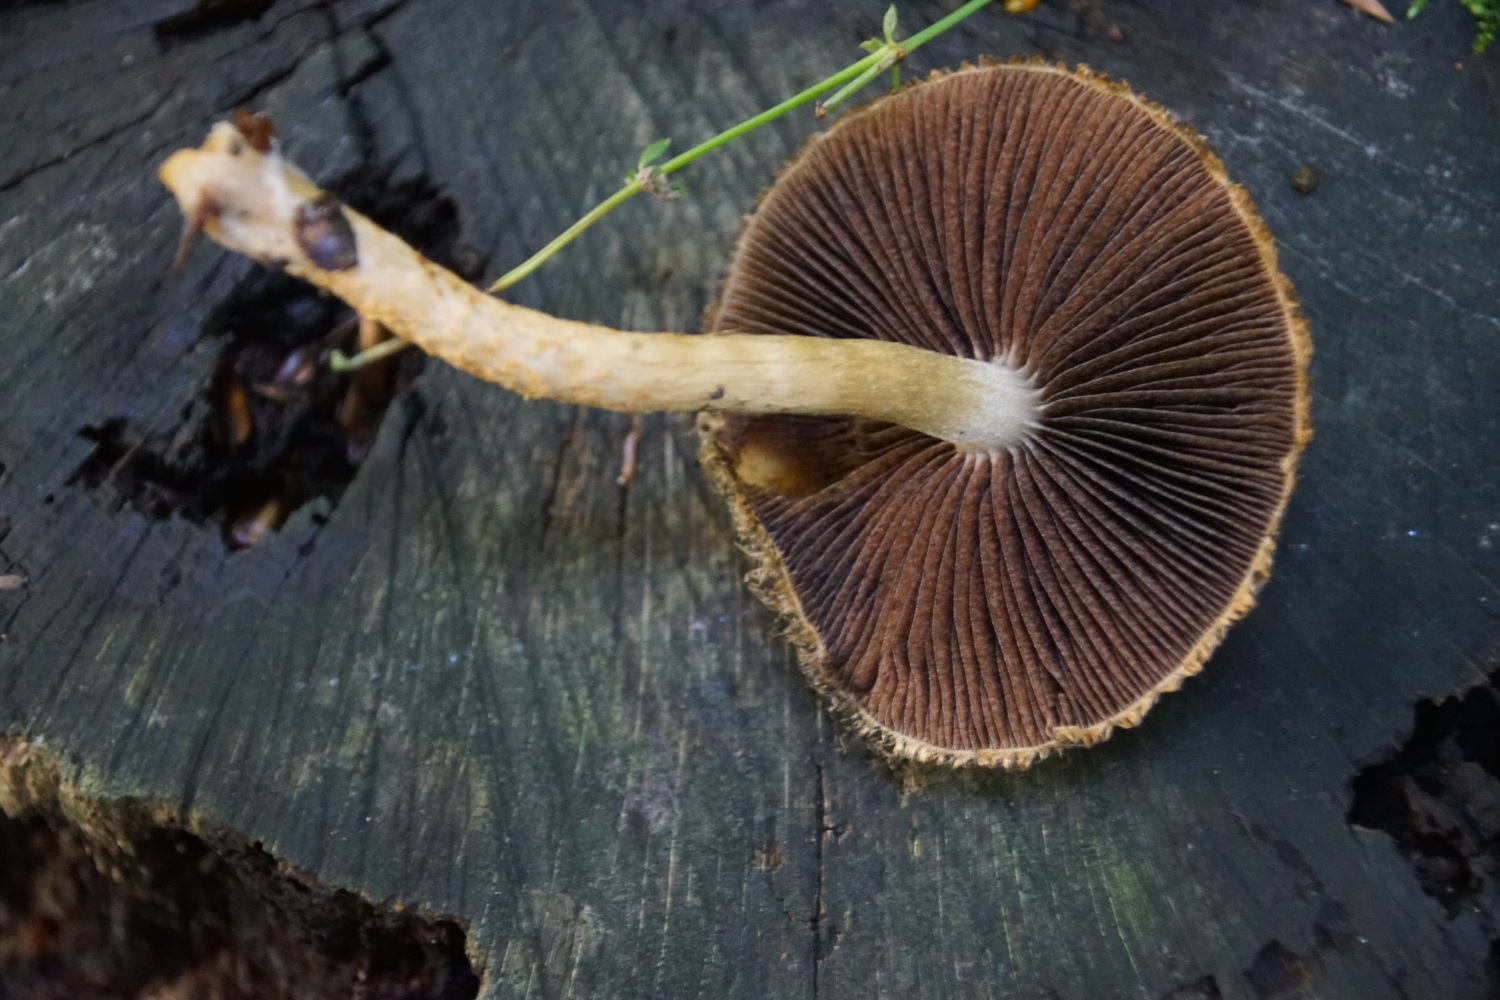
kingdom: Fungi
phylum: Basidiomycota
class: Agaricomycetes
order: Agaricales
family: Psathyrellaceae
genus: Lacrymaria
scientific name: Lacrymaria pyrotricha
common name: ildhåret mørkhat
